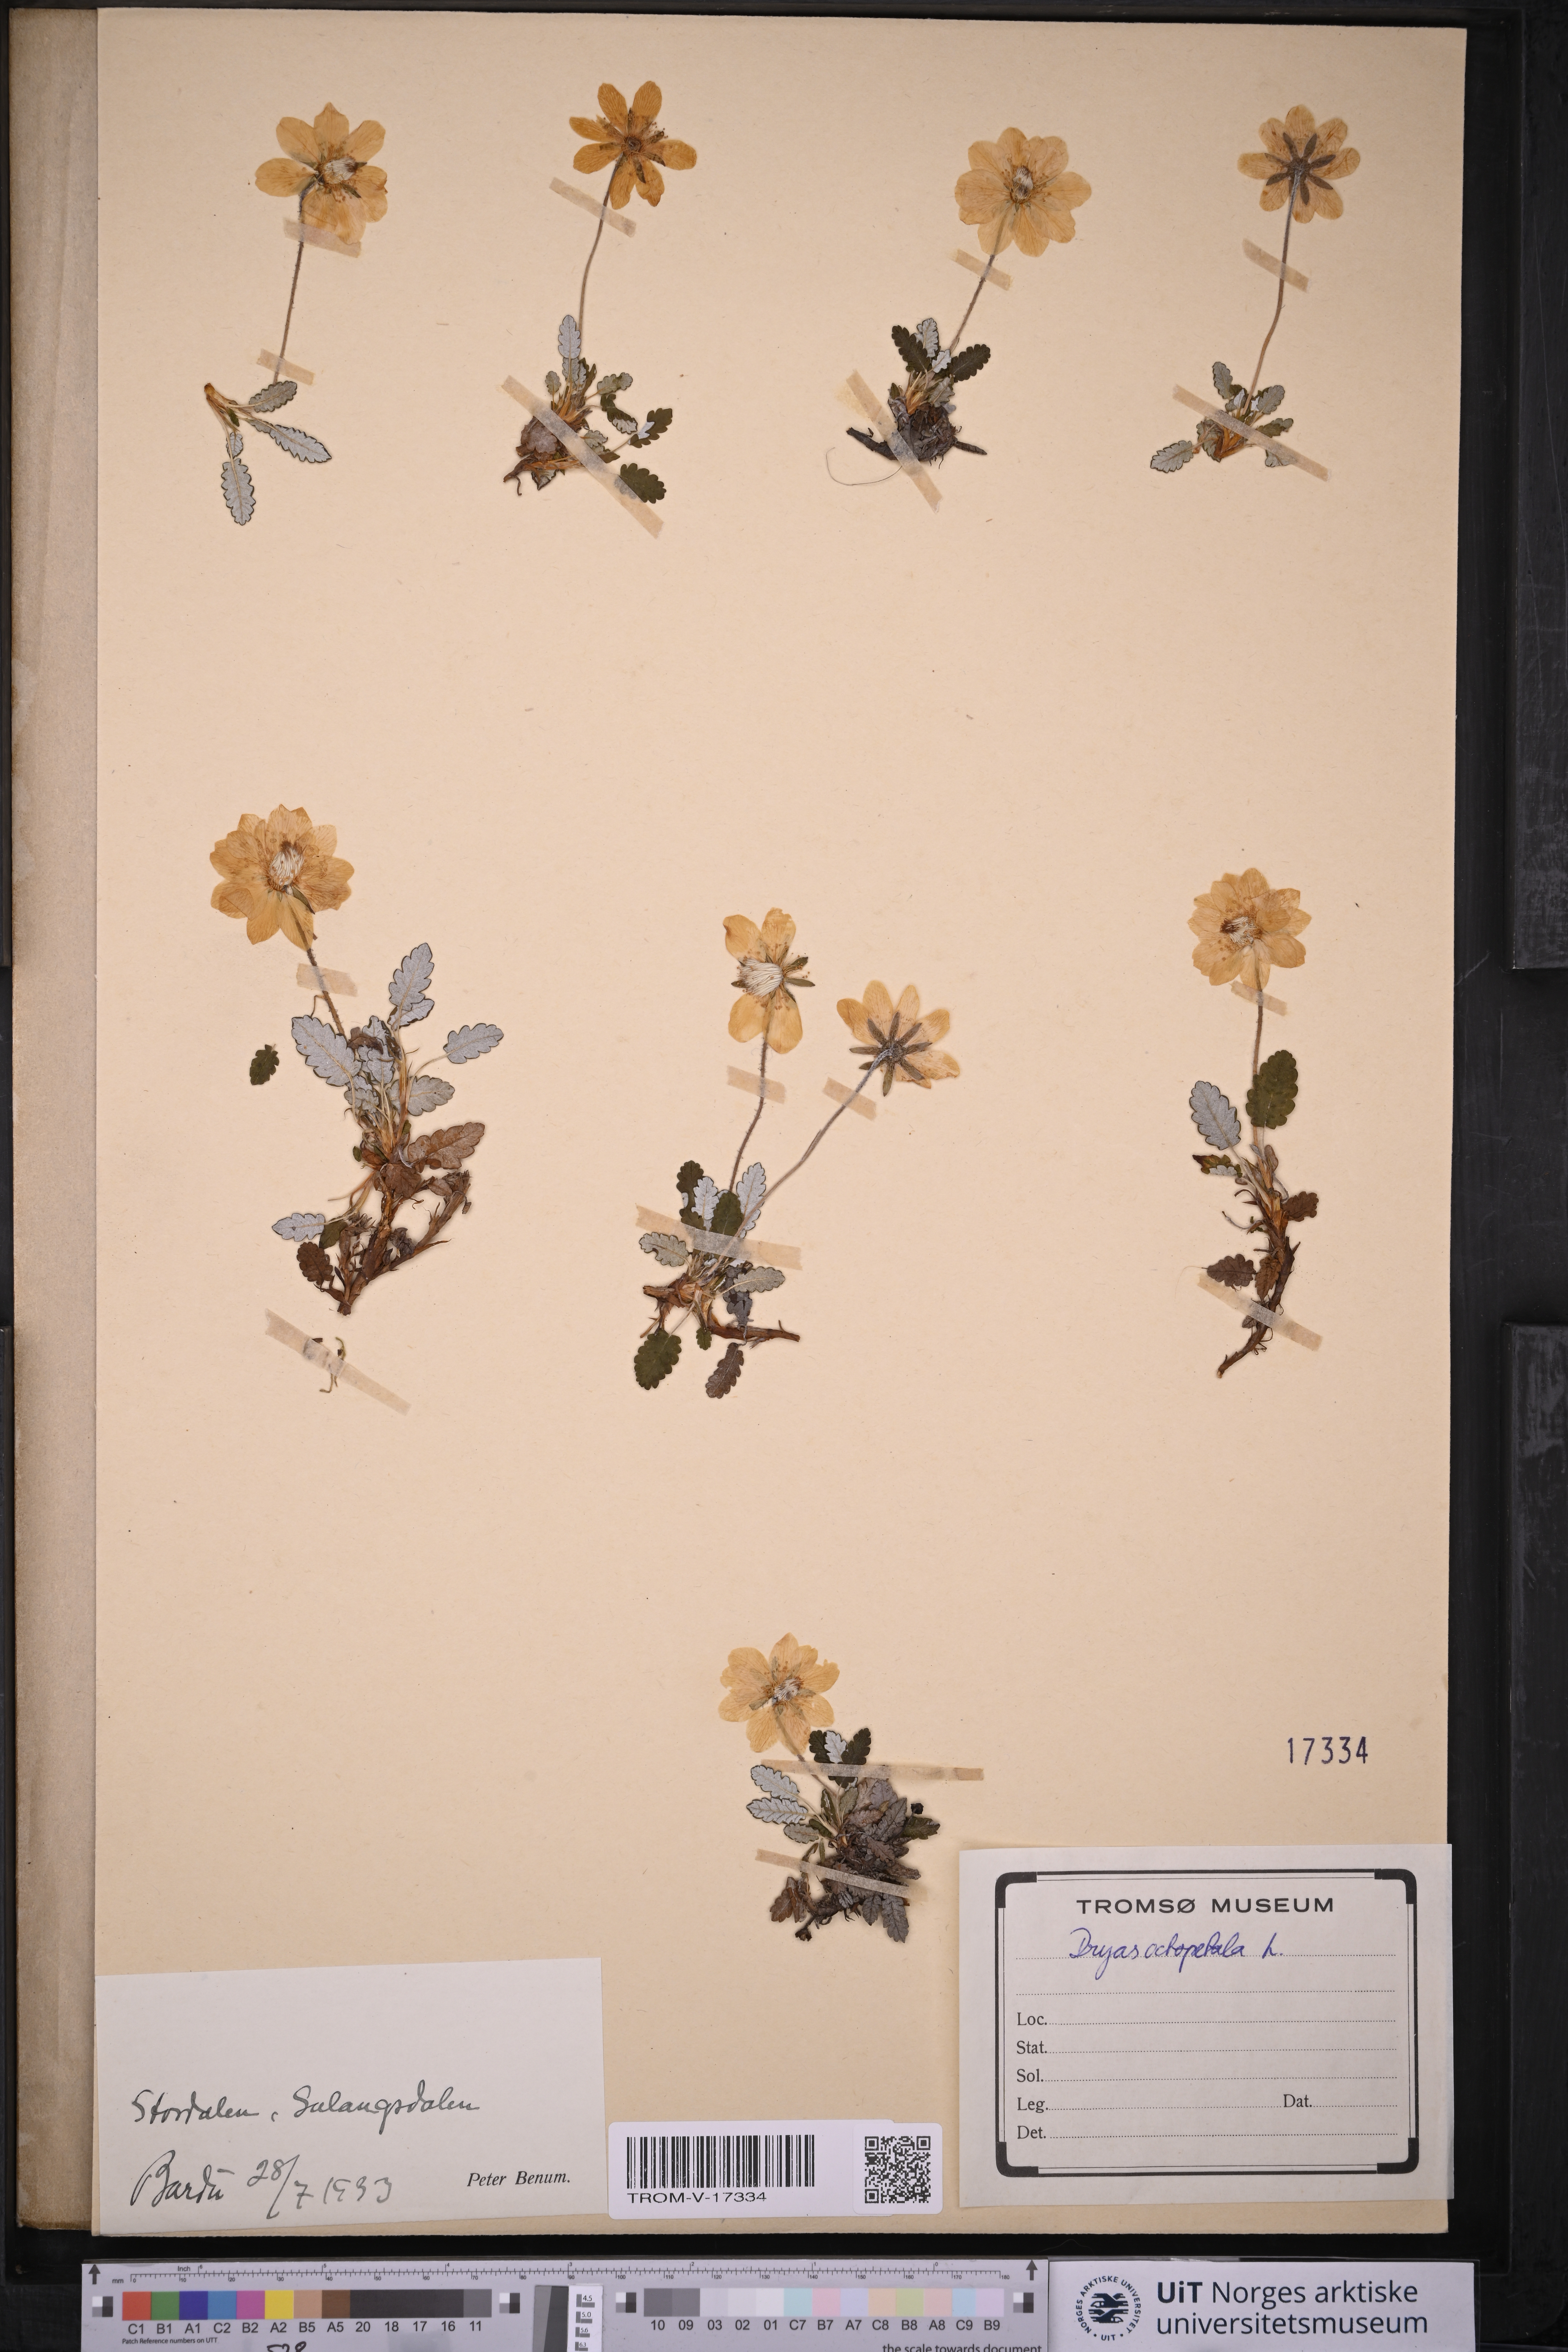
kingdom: Plantae
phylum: Tracheophyta
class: Magnoliopsida
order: Rosales
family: Rosaceae
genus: Dryas
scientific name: Dryas octopetala
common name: Eight-petal mountain-avens
